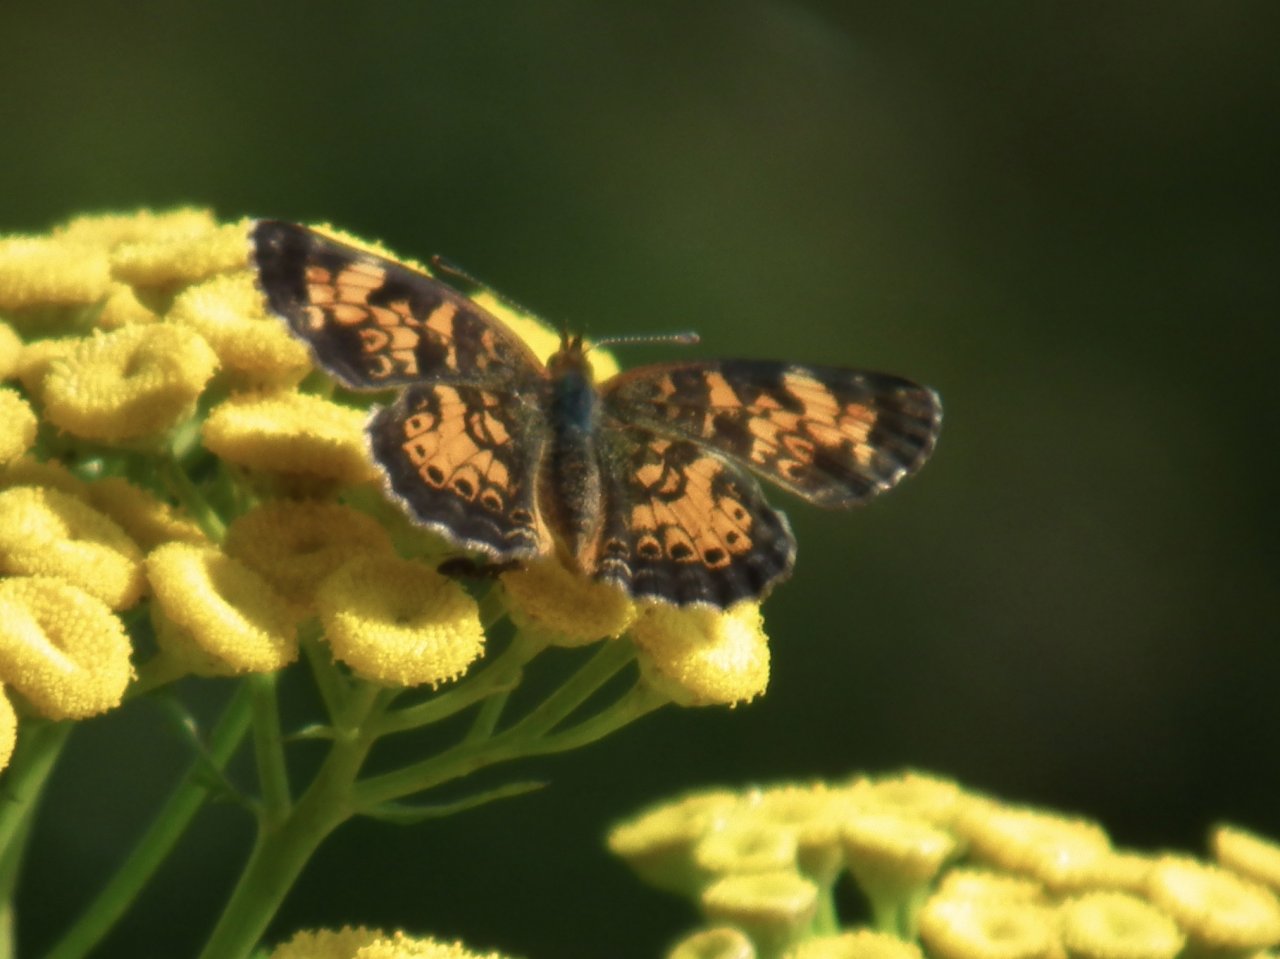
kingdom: Animalia
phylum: Arthropoda
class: Insecta
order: Lepidoptera
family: Nymphalidae
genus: Phyciodes
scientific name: Phyciodes tharos
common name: Northern Crescent
